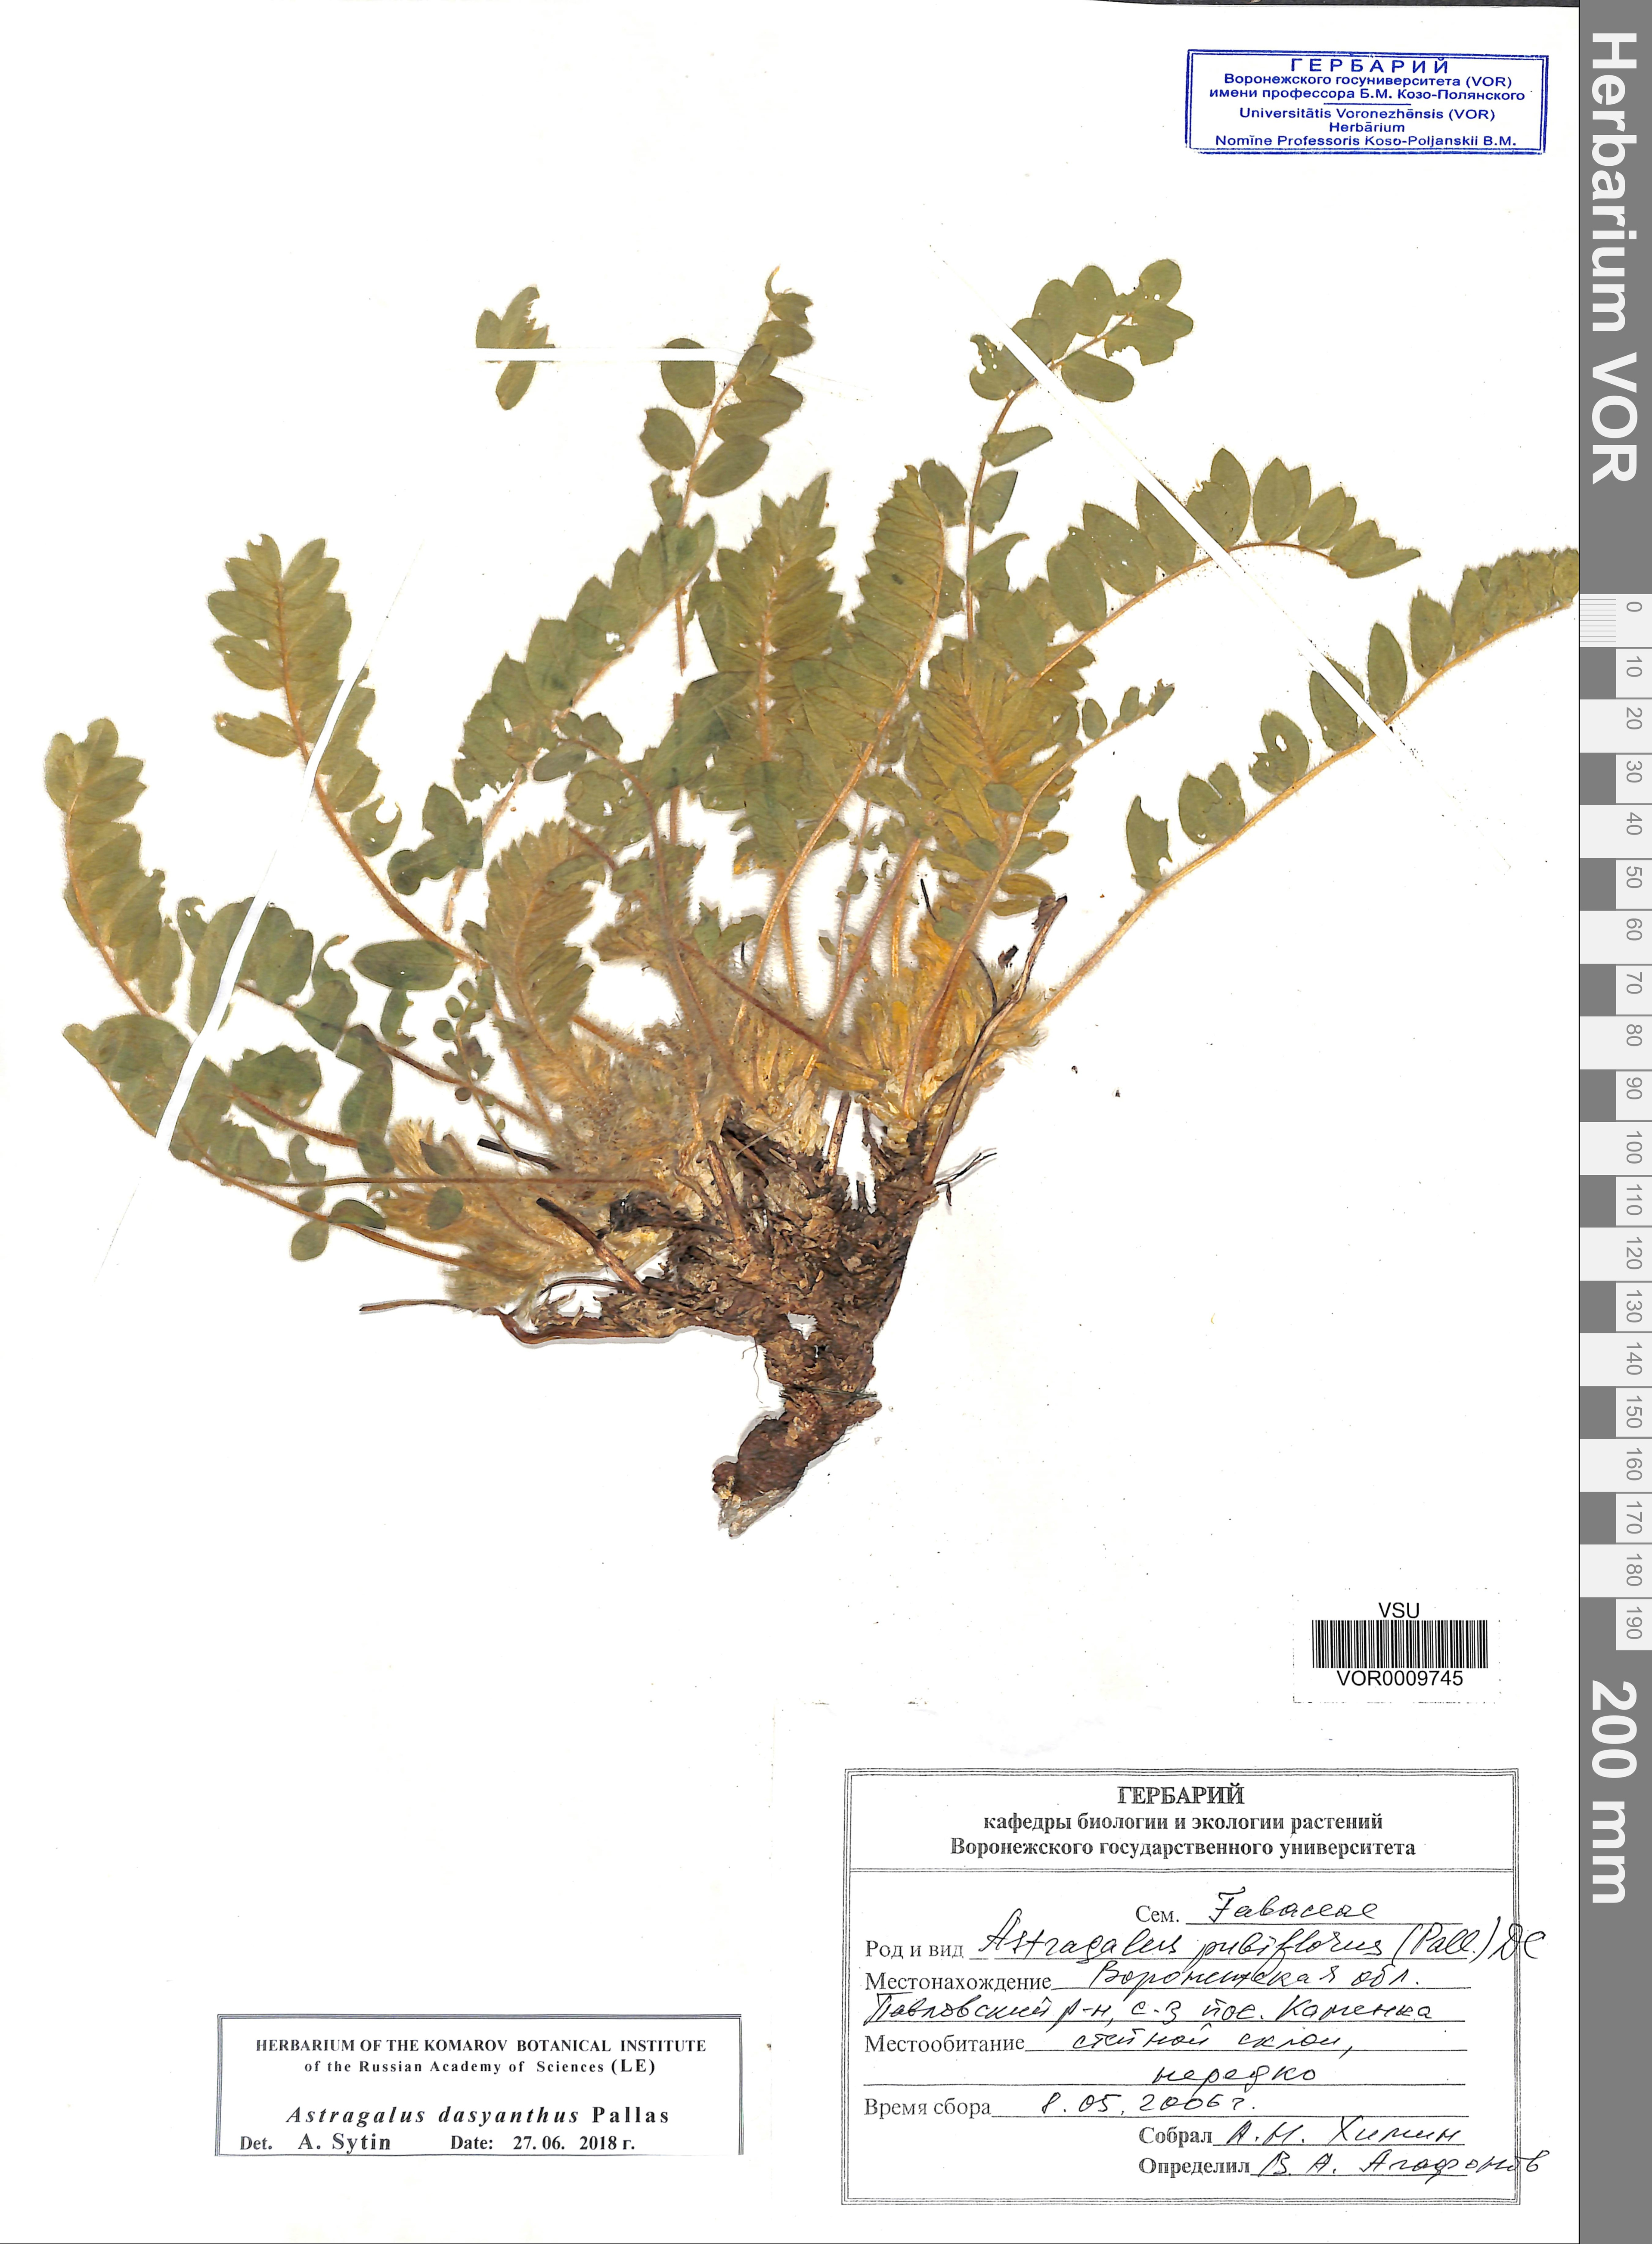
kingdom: Plantae
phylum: Tracheophyta
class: Magnoliopsida
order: Fabales
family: Fabaceae
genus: Astragalus
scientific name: Astragalus dasyanthus
